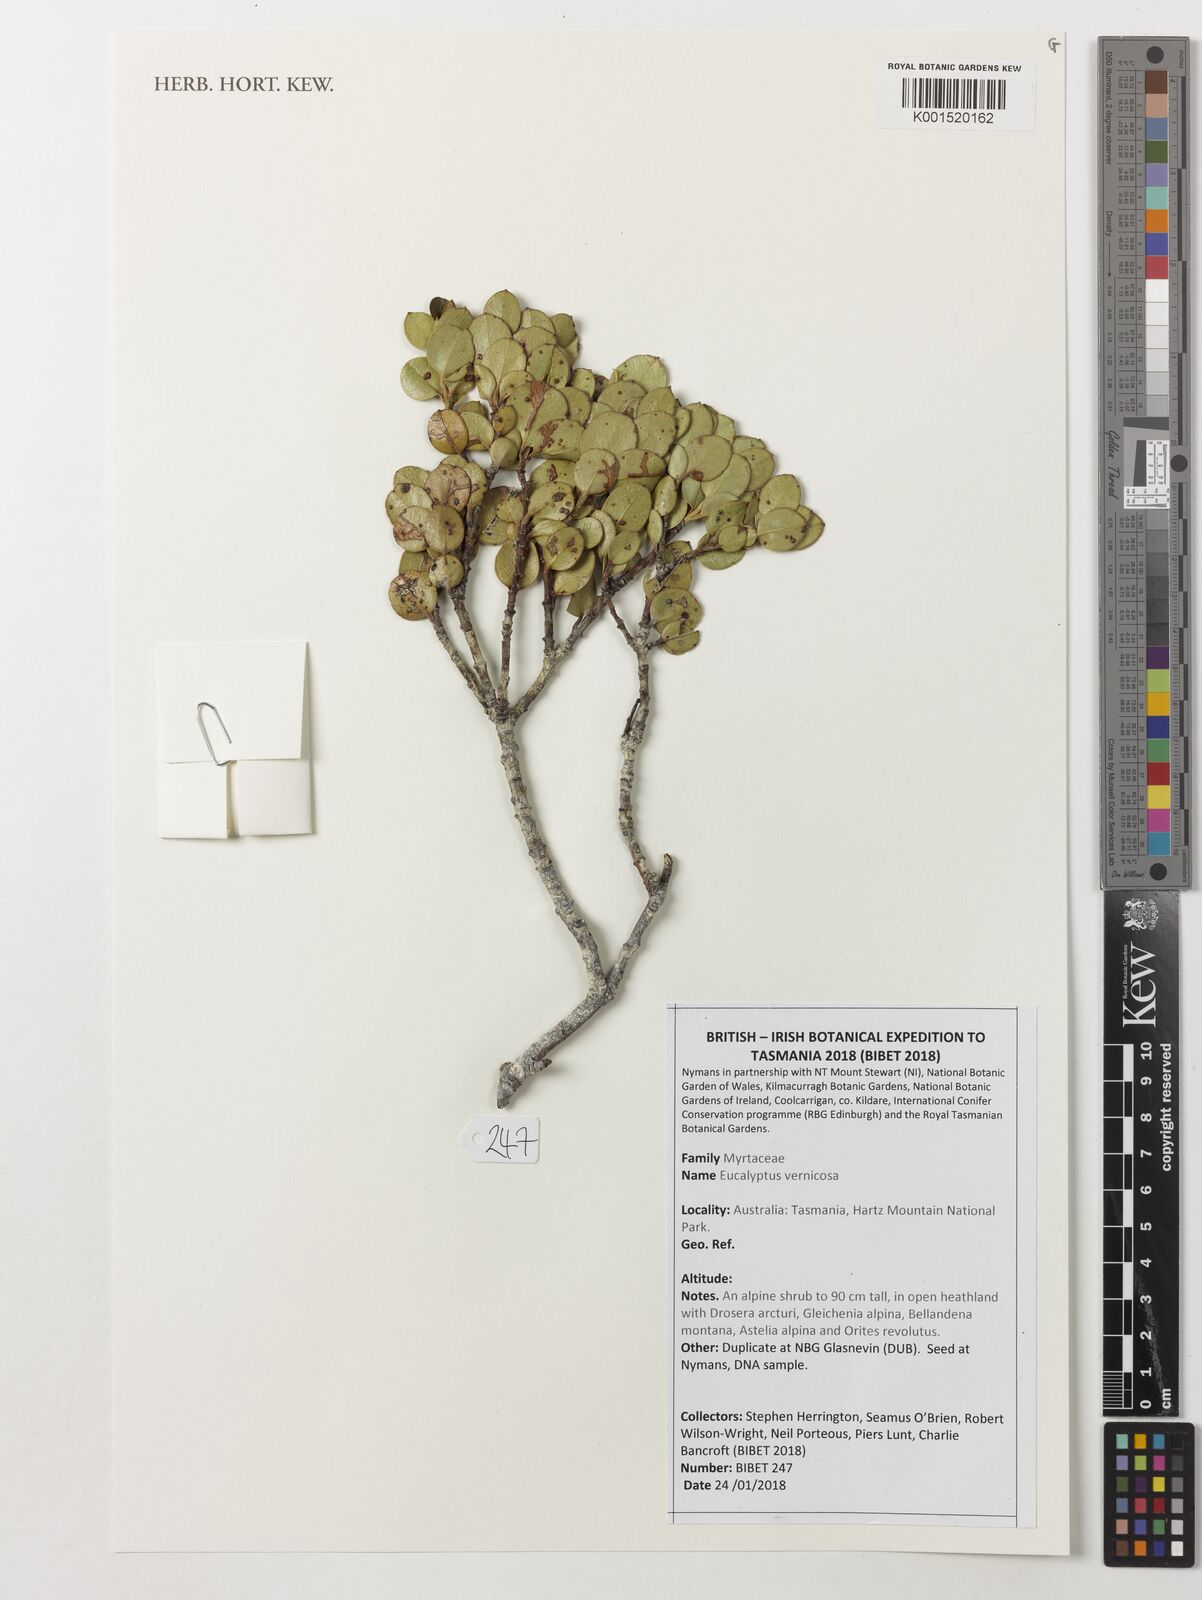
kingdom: Plantae
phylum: Tracheophyta
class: Magnoliopsida
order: Myrtales
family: Myrtaceae
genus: Eucalyptus
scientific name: Eucalyptus vernicosa
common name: Varnished gum
